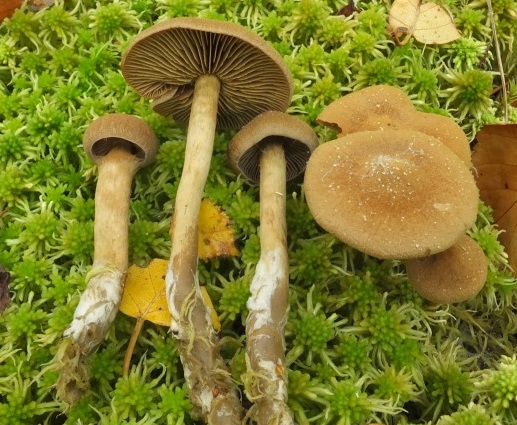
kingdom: Fungi
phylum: Basidiomycota
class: Agaricomycetes
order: Agaricales
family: Cortinariaceae
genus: Cortinarius
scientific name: Cortinarius chrysolitus
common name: tørve-slørhat
